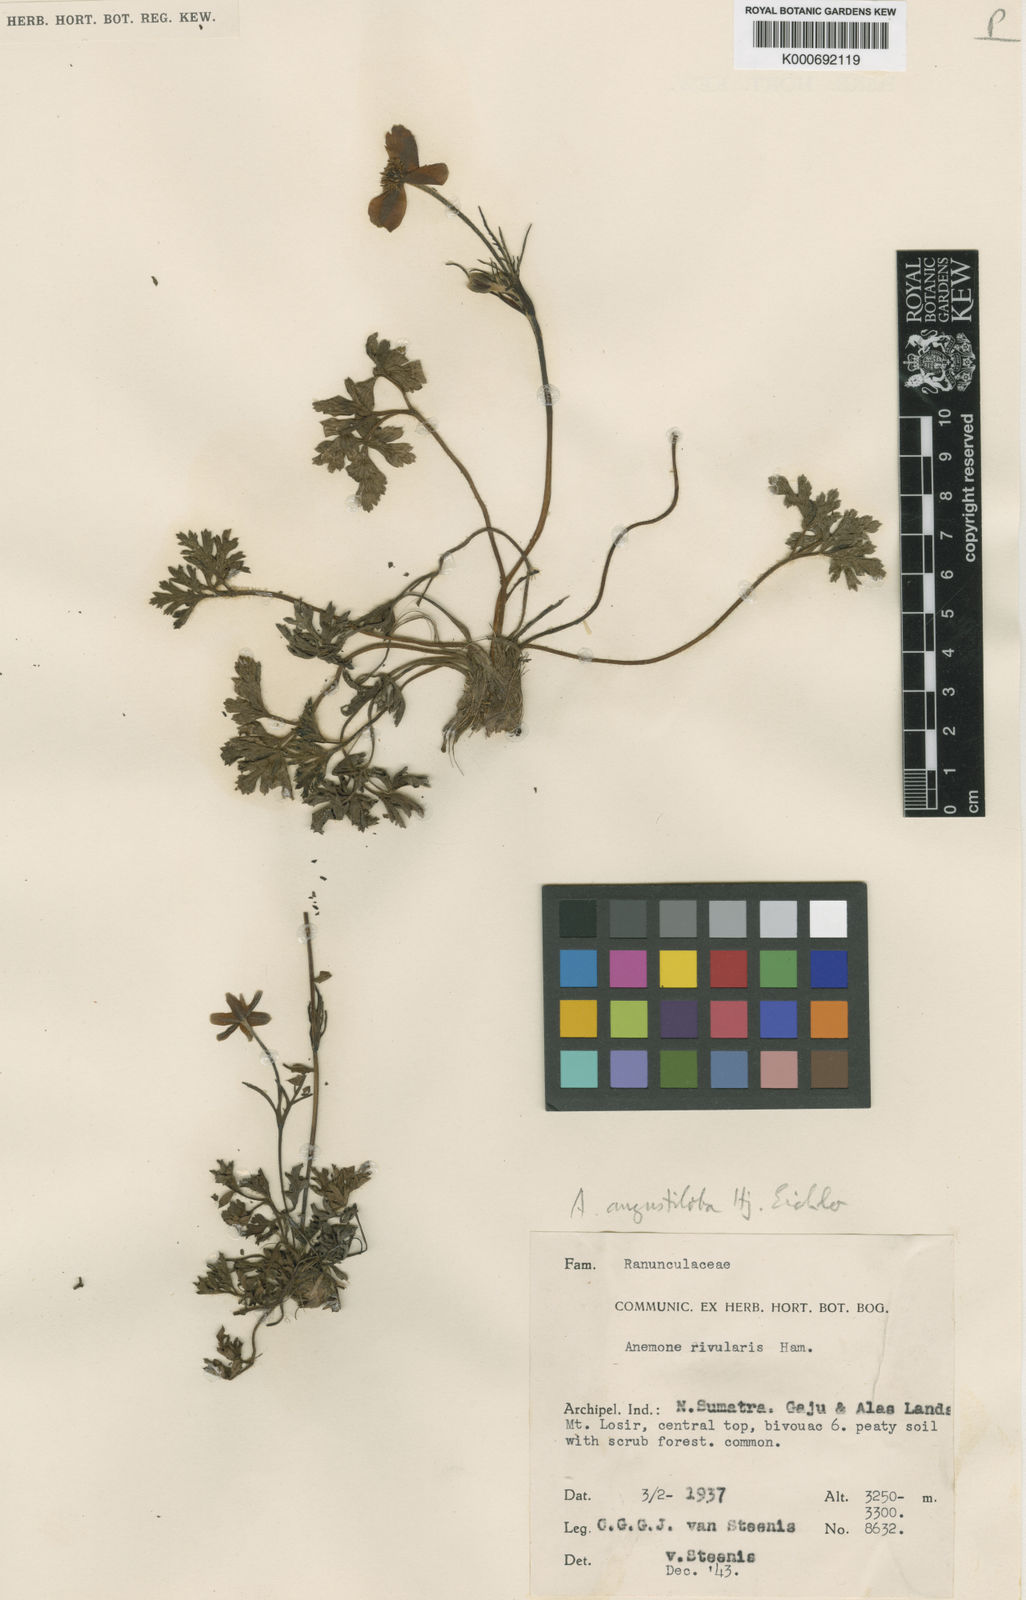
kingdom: Plantae
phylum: Tracheophyta
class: Magnoliopsida
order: Ranunculales
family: Ranunculaceae
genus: Anemone
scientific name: Anemone angustiloba
